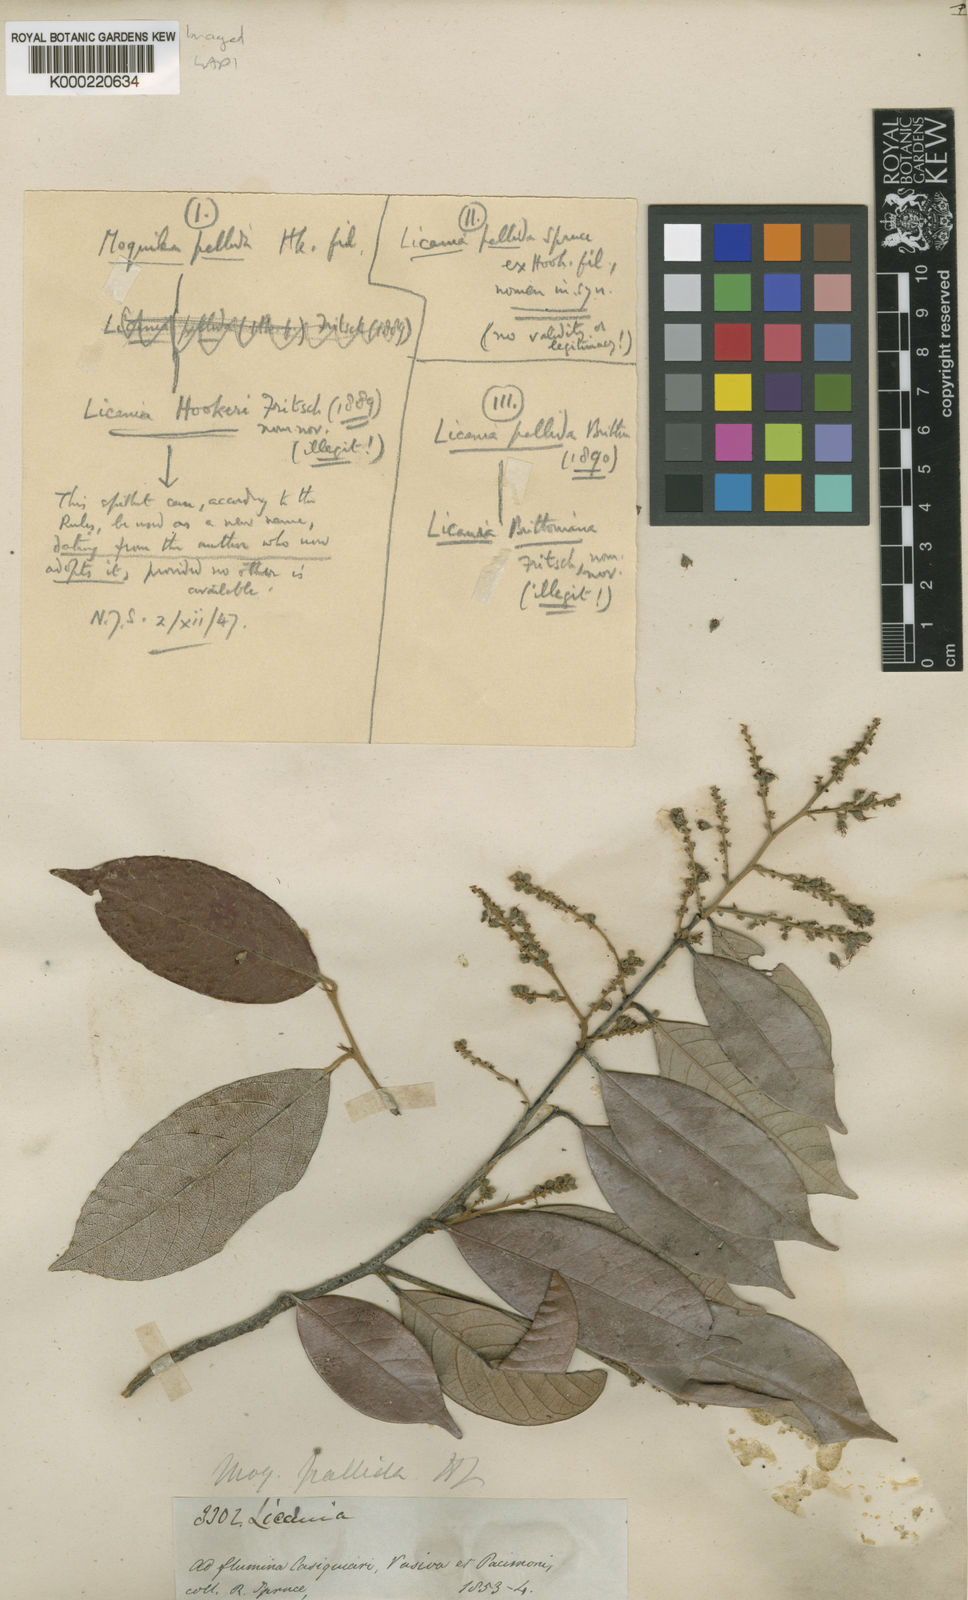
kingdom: Plantae
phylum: Tracheophyta
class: Magnoliopsida
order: Malpighiales
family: Chrysobalanaceae
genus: Licania
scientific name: Licania octandra
